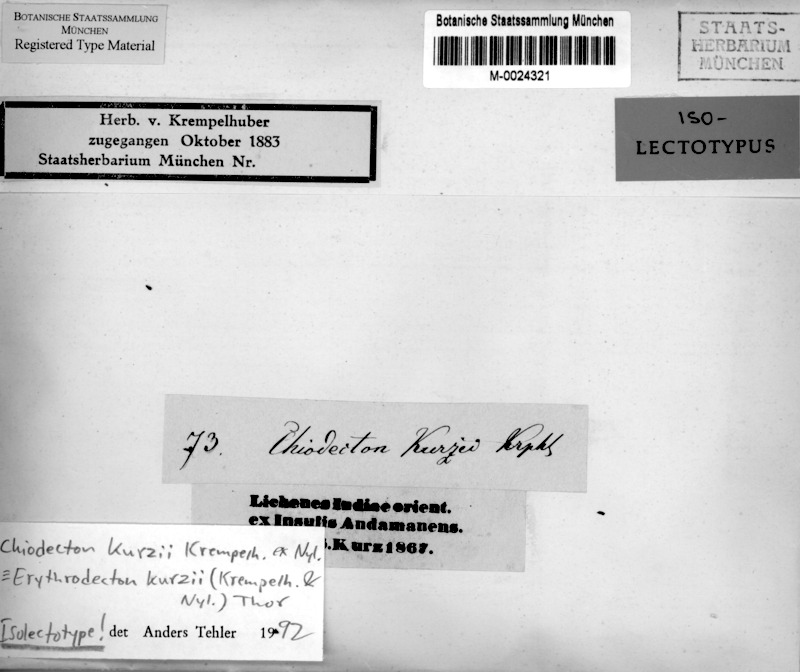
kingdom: Fungi
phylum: Ascomycota
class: Arthoniomycetes
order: Arthoniales
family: Roccellaceae
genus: Pulvinodecton
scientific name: Pulvinodecton kurzii
